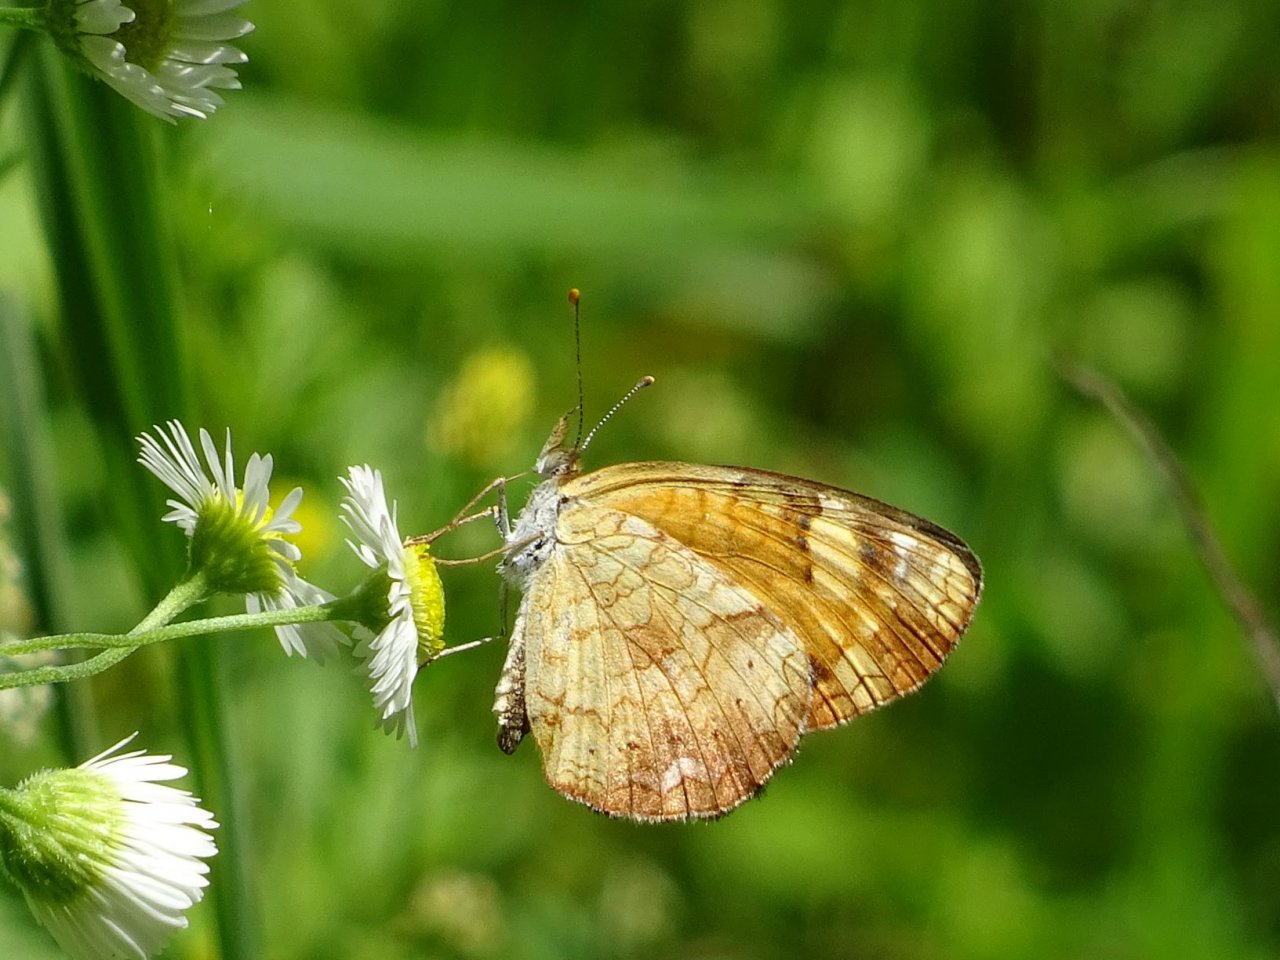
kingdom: Animalia
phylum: Arthropoda
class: Insecta
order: Lepidoptera
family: Nymphalidae
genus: Phyciodes
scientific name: Phyciodes tharos
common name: Northern Crescent
